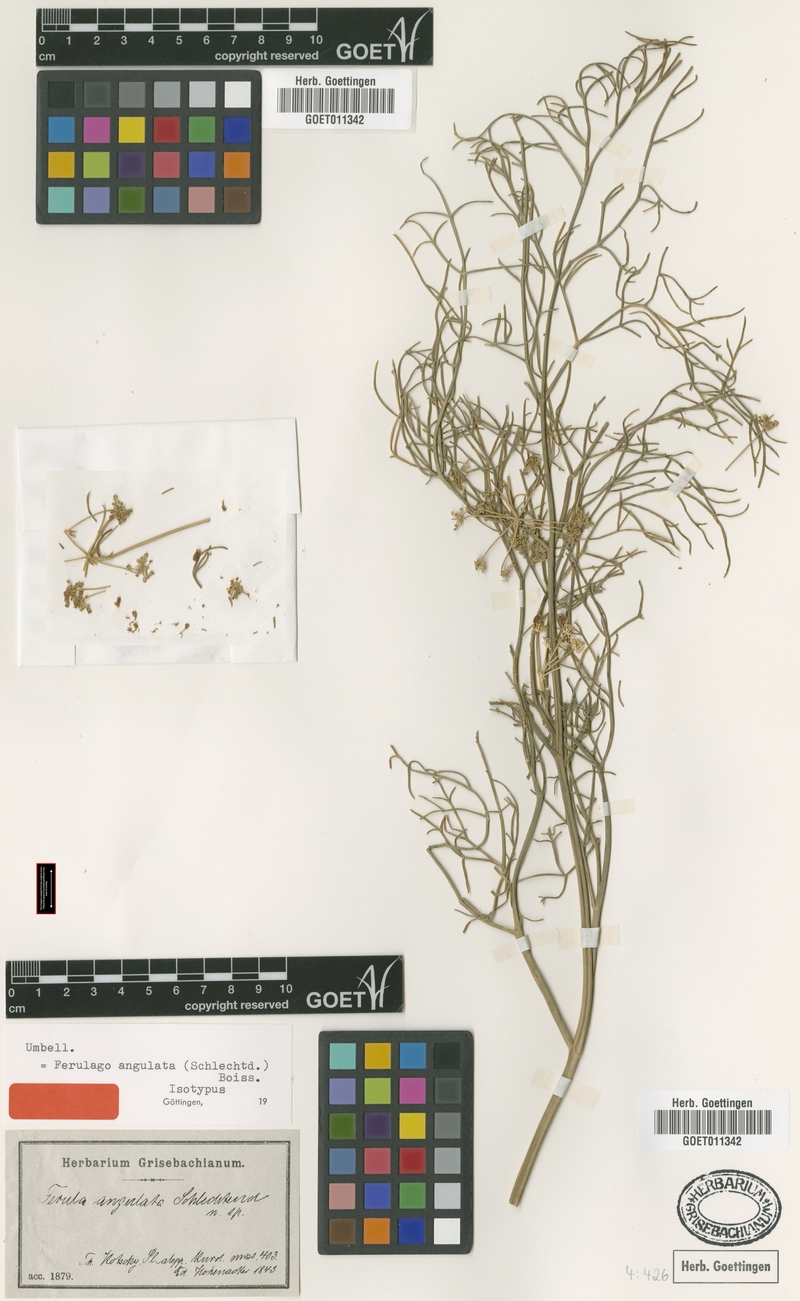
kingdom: Plantae
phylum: Tracheophyta
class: Magnoliopsida
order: Apiales
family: Apiaceae
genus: Ferulago
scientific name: Ferulago angulata
